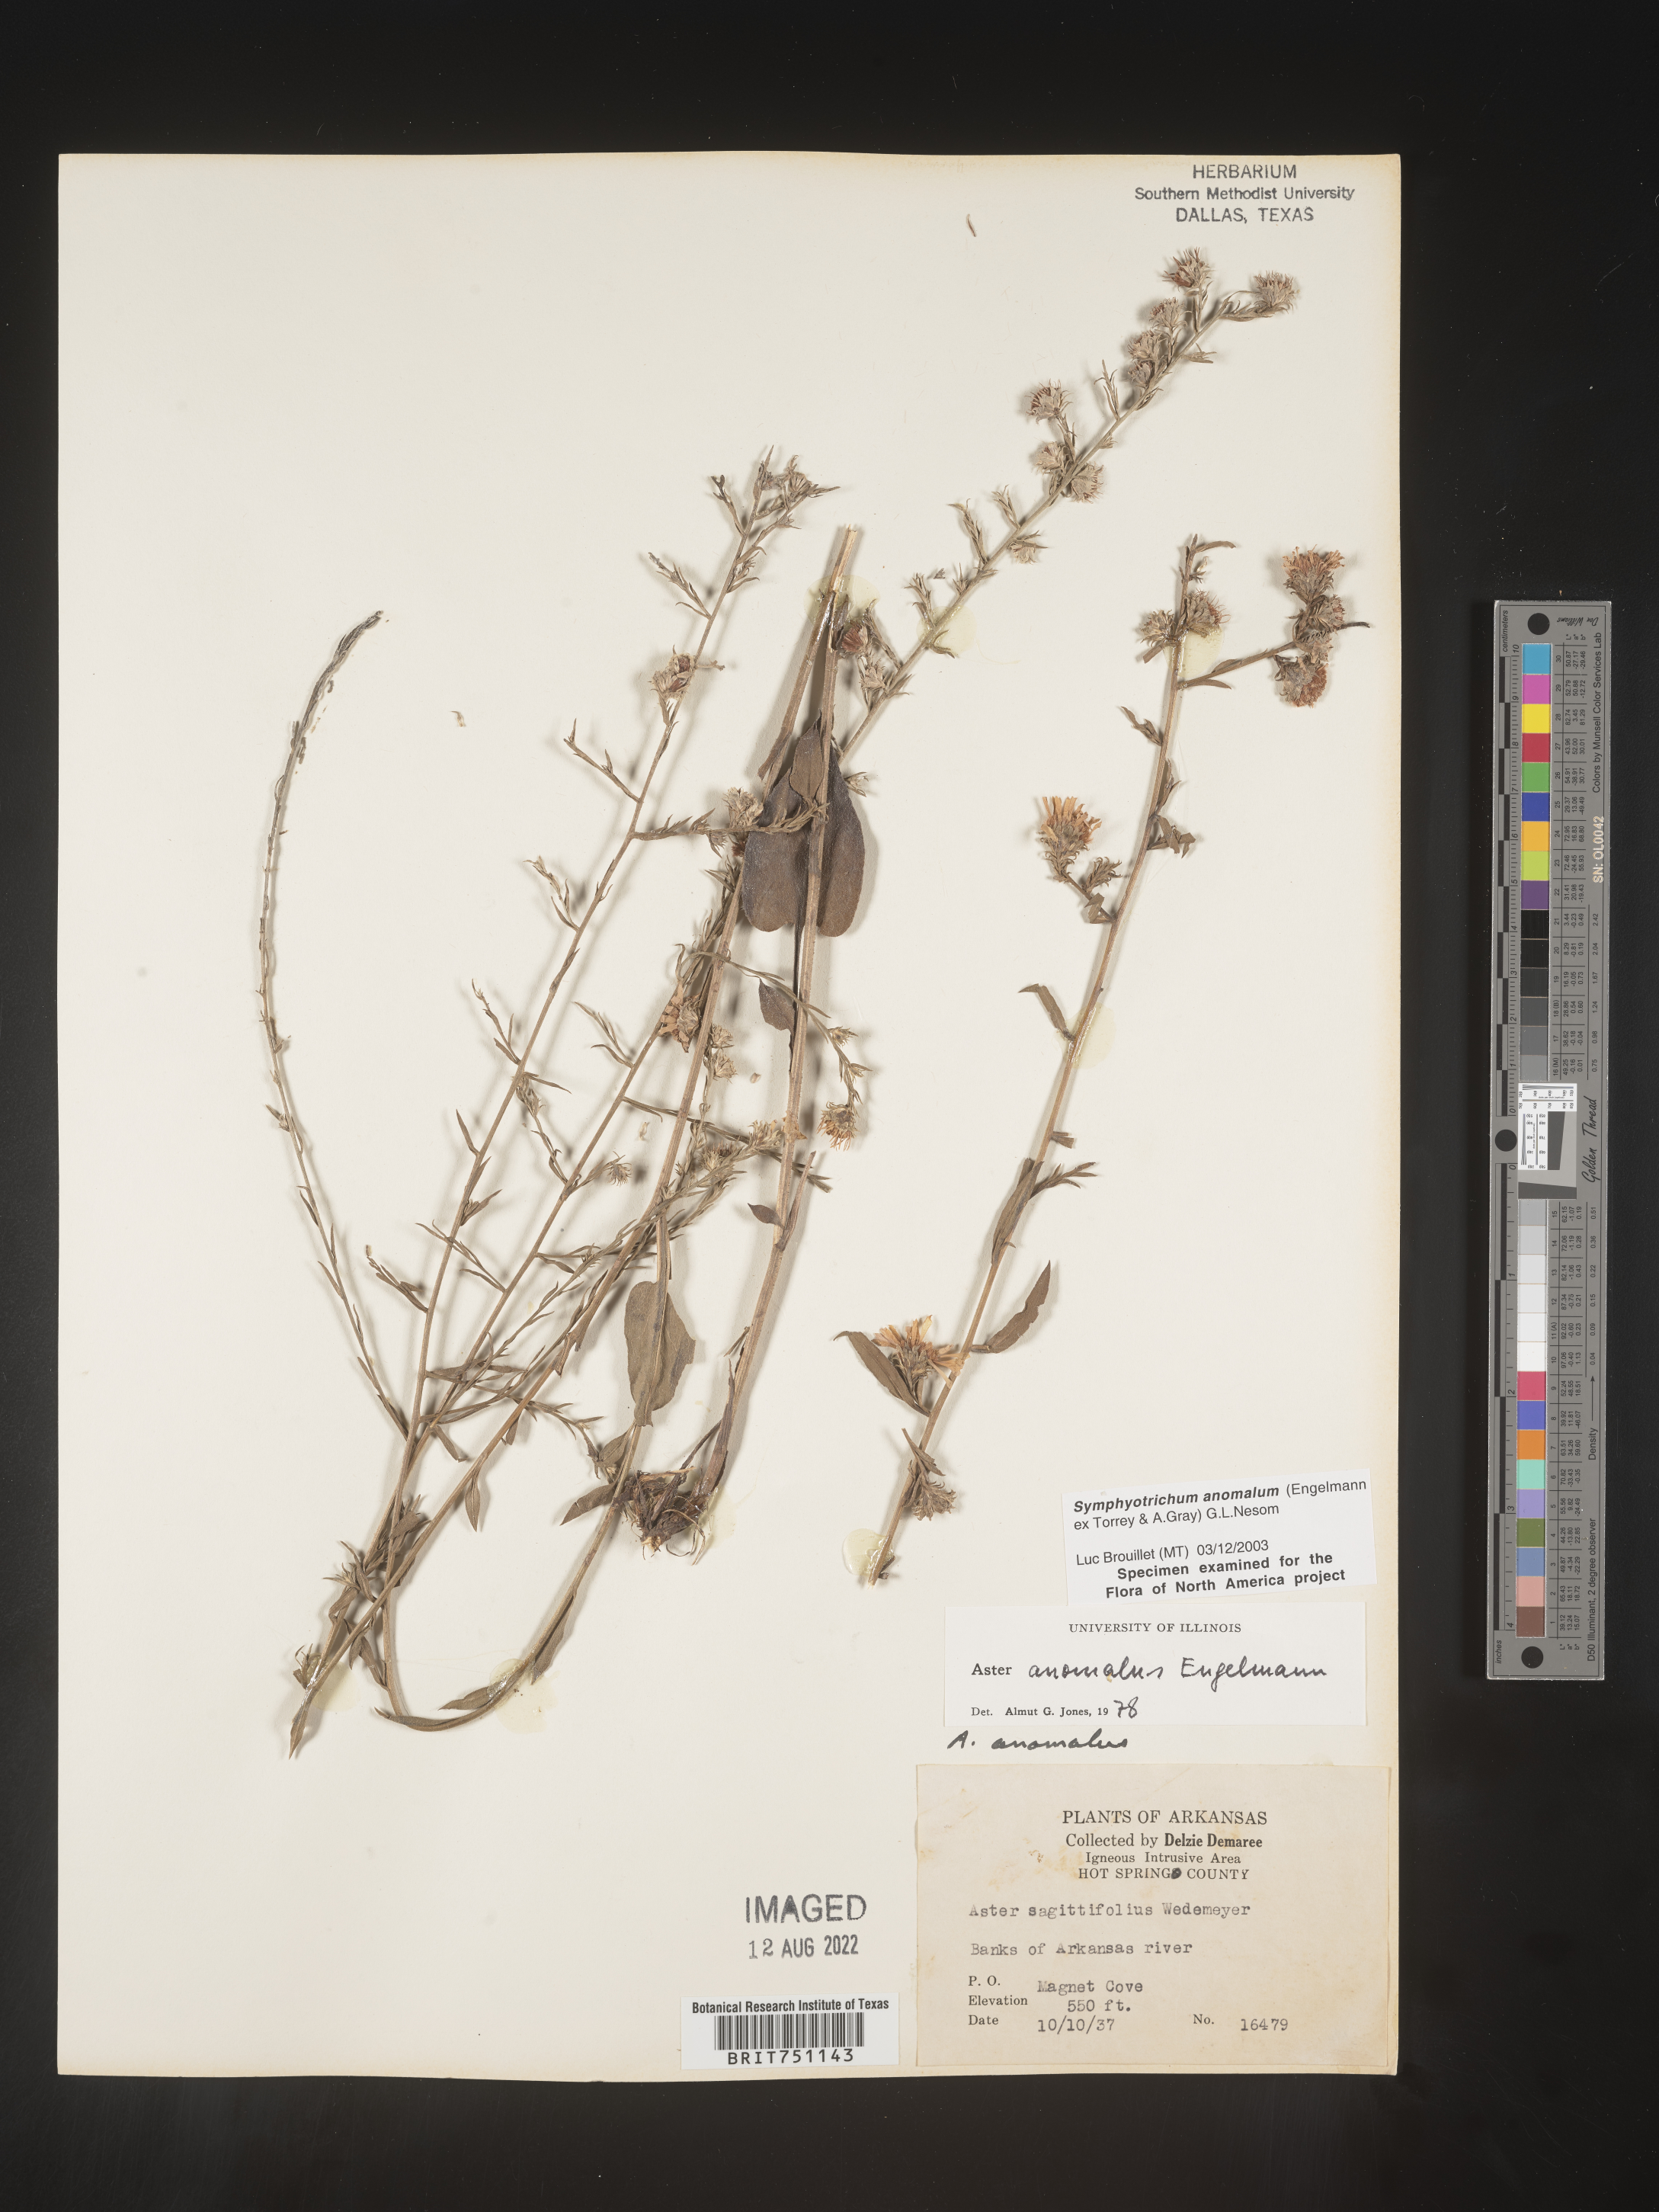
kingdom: Plantae
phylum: Tracheophyta
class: Magnoliopsida
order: Asterales
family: Asteraceae
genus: Symphyotrichum
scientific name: Symphyotrichum anomalum
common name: Many-ray aster
